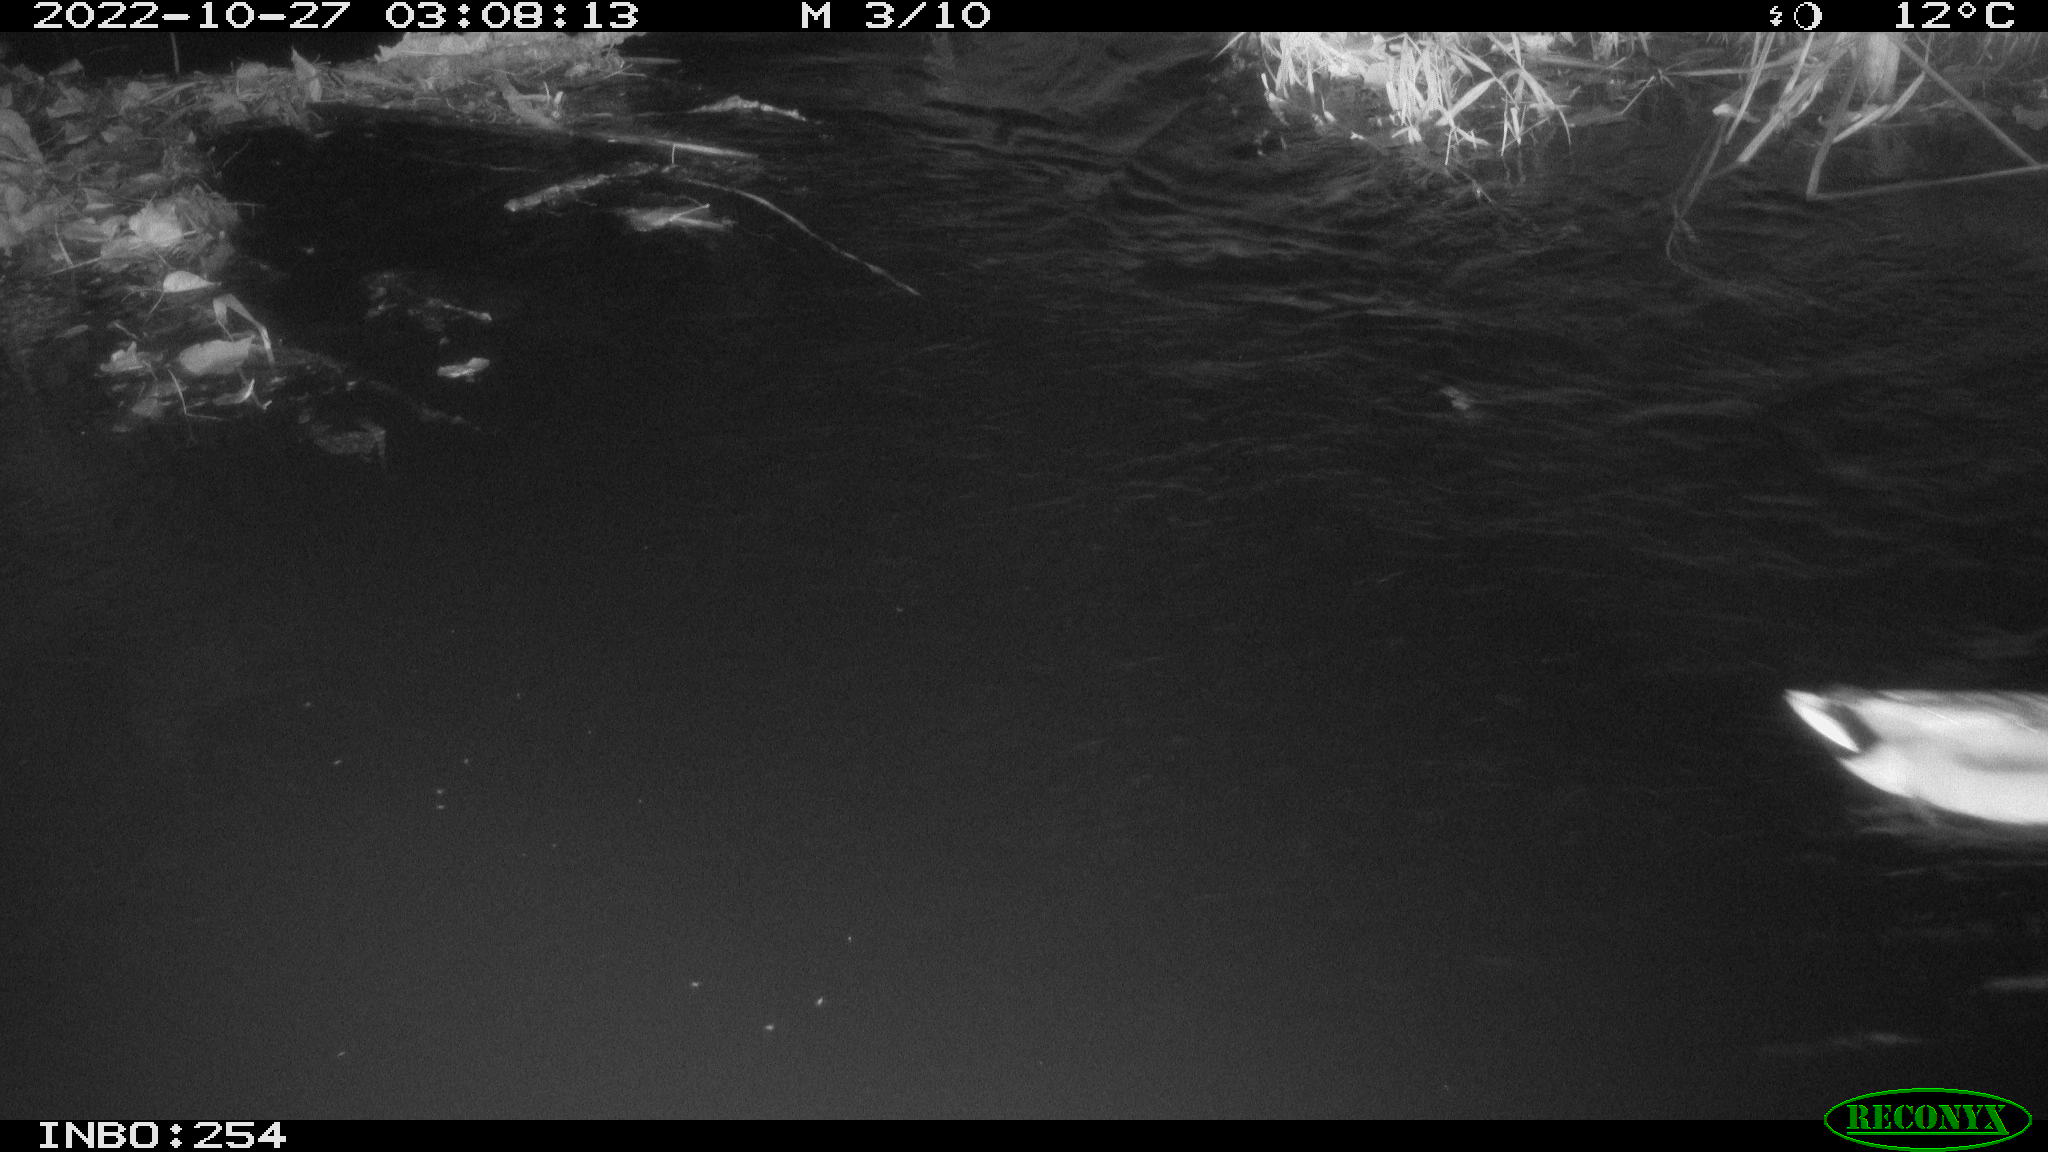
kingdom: Animalia
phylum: Chordata
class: Aves
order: Anseriformes
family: Anatidae
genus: Anas
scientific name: Anas
